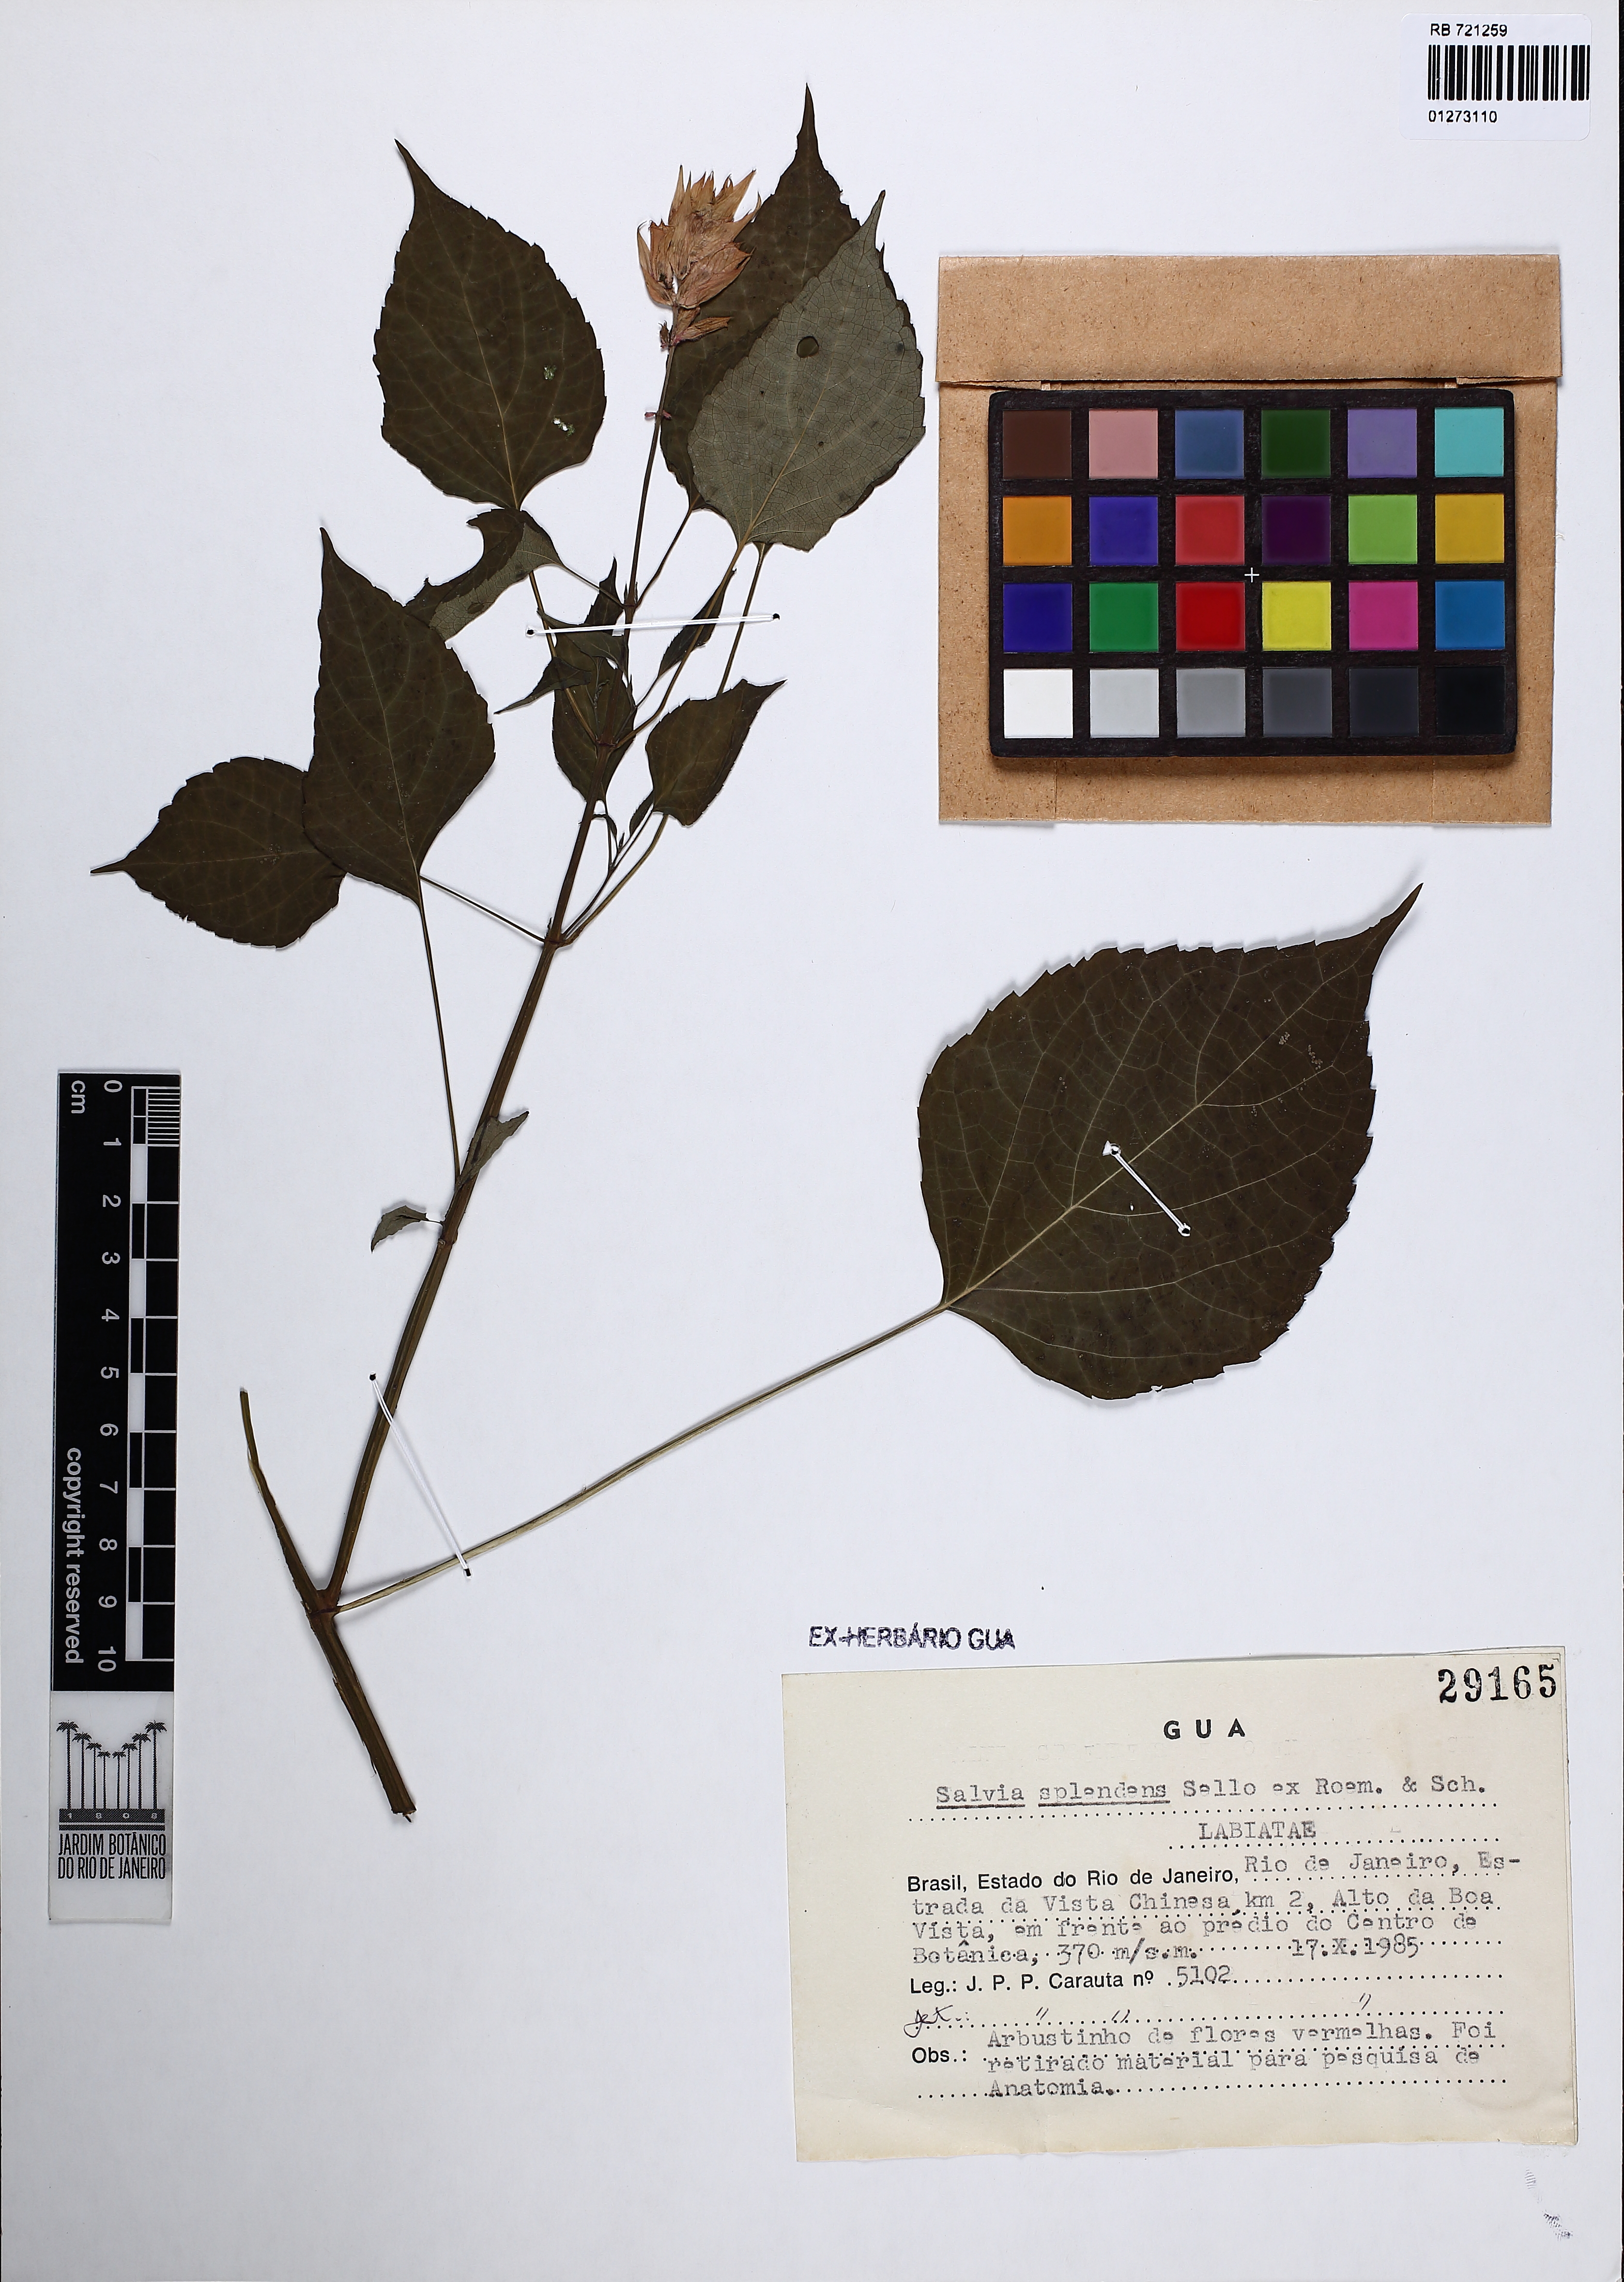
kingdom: Plantae
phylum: Tracheophyta
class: Magnoliopsida
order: Lamiales
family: Lamiaceae
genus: Salvia
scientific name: Salvia splendens
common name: Scarlet sage
